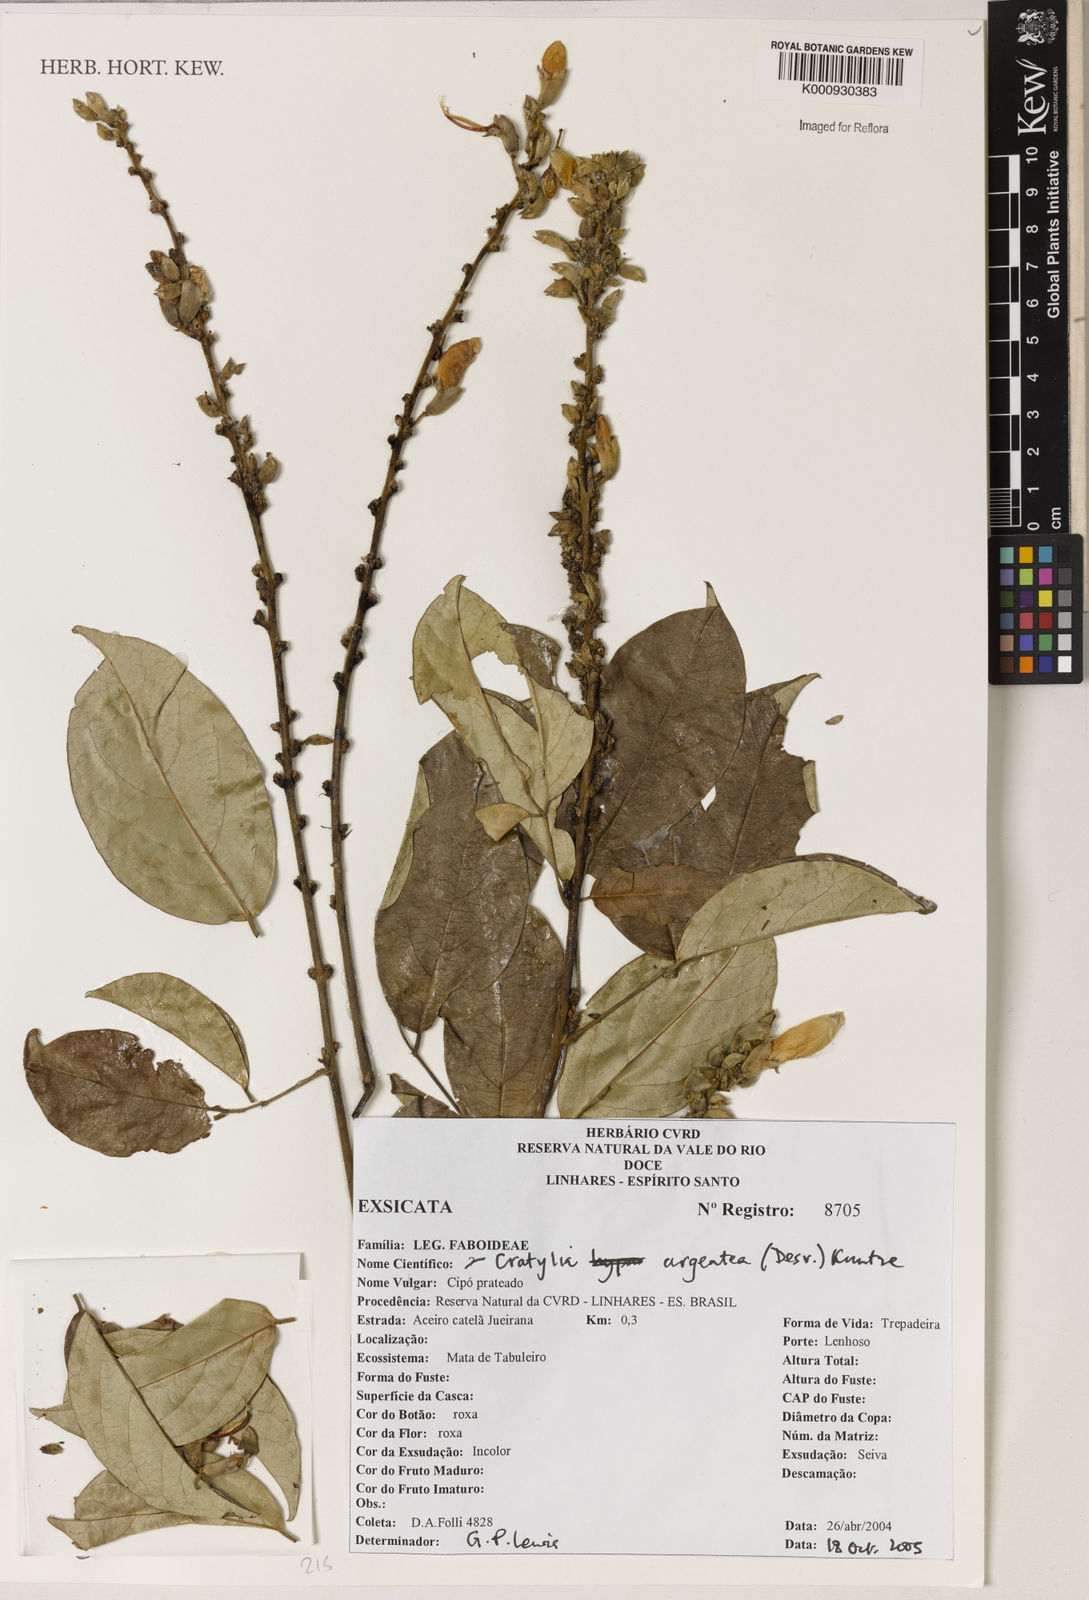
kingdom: Plantae
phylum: Tracheophyta
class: Magnoliopsida
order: Fabales
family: Fabaceae
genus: Cratylia
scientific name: Cratylia argentea
